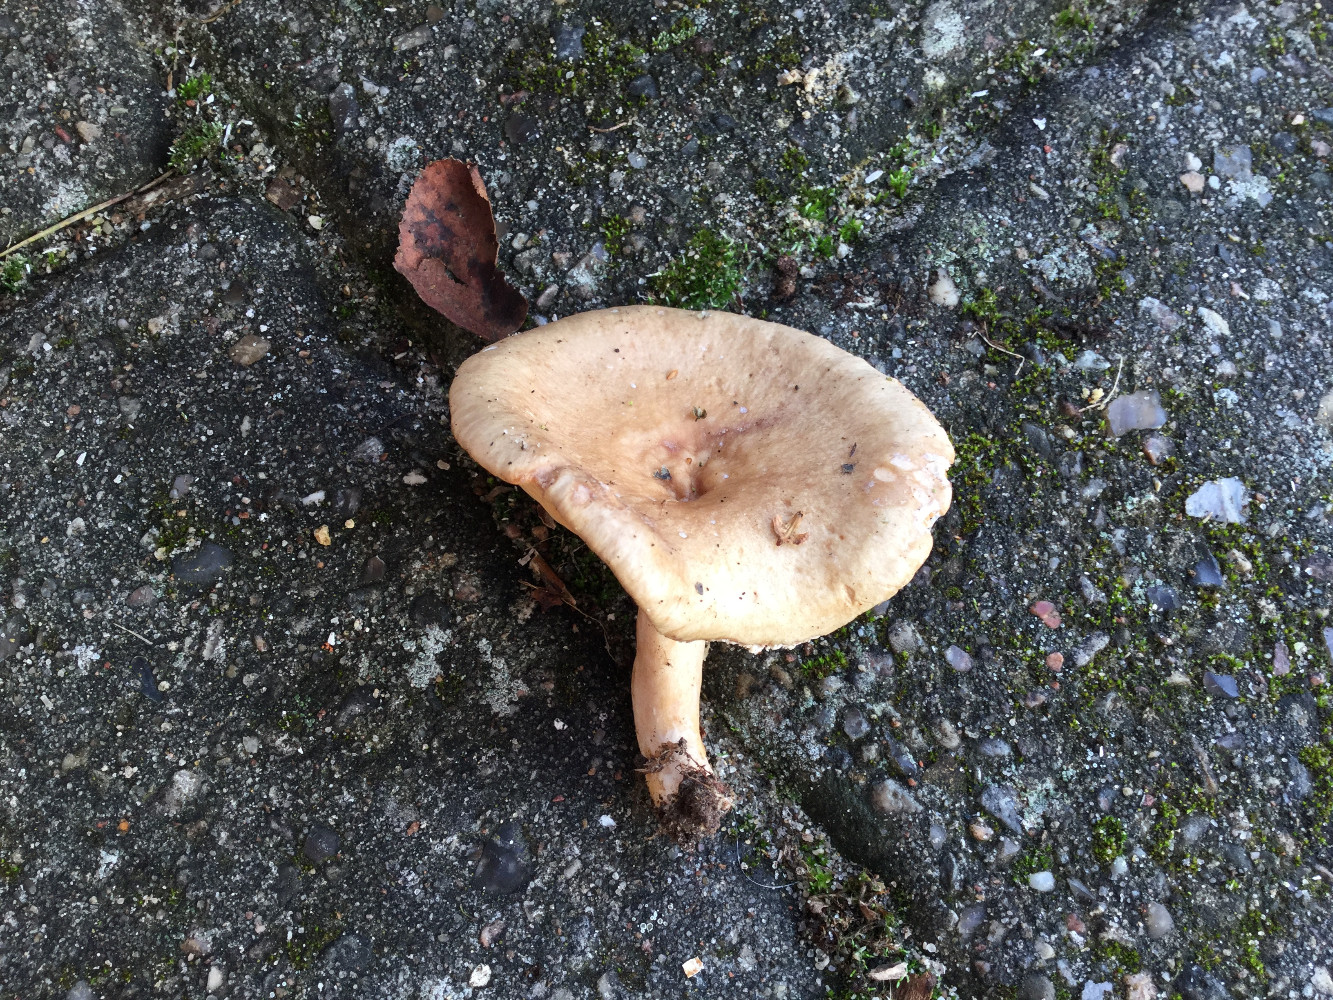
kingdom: Fungi
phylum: Basidiomycota
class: Agaricomycetes
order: Russulales
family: Russulaceae
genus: Lactarius
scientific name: Lactarius pyrogalus
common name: hassel-mælkehat
